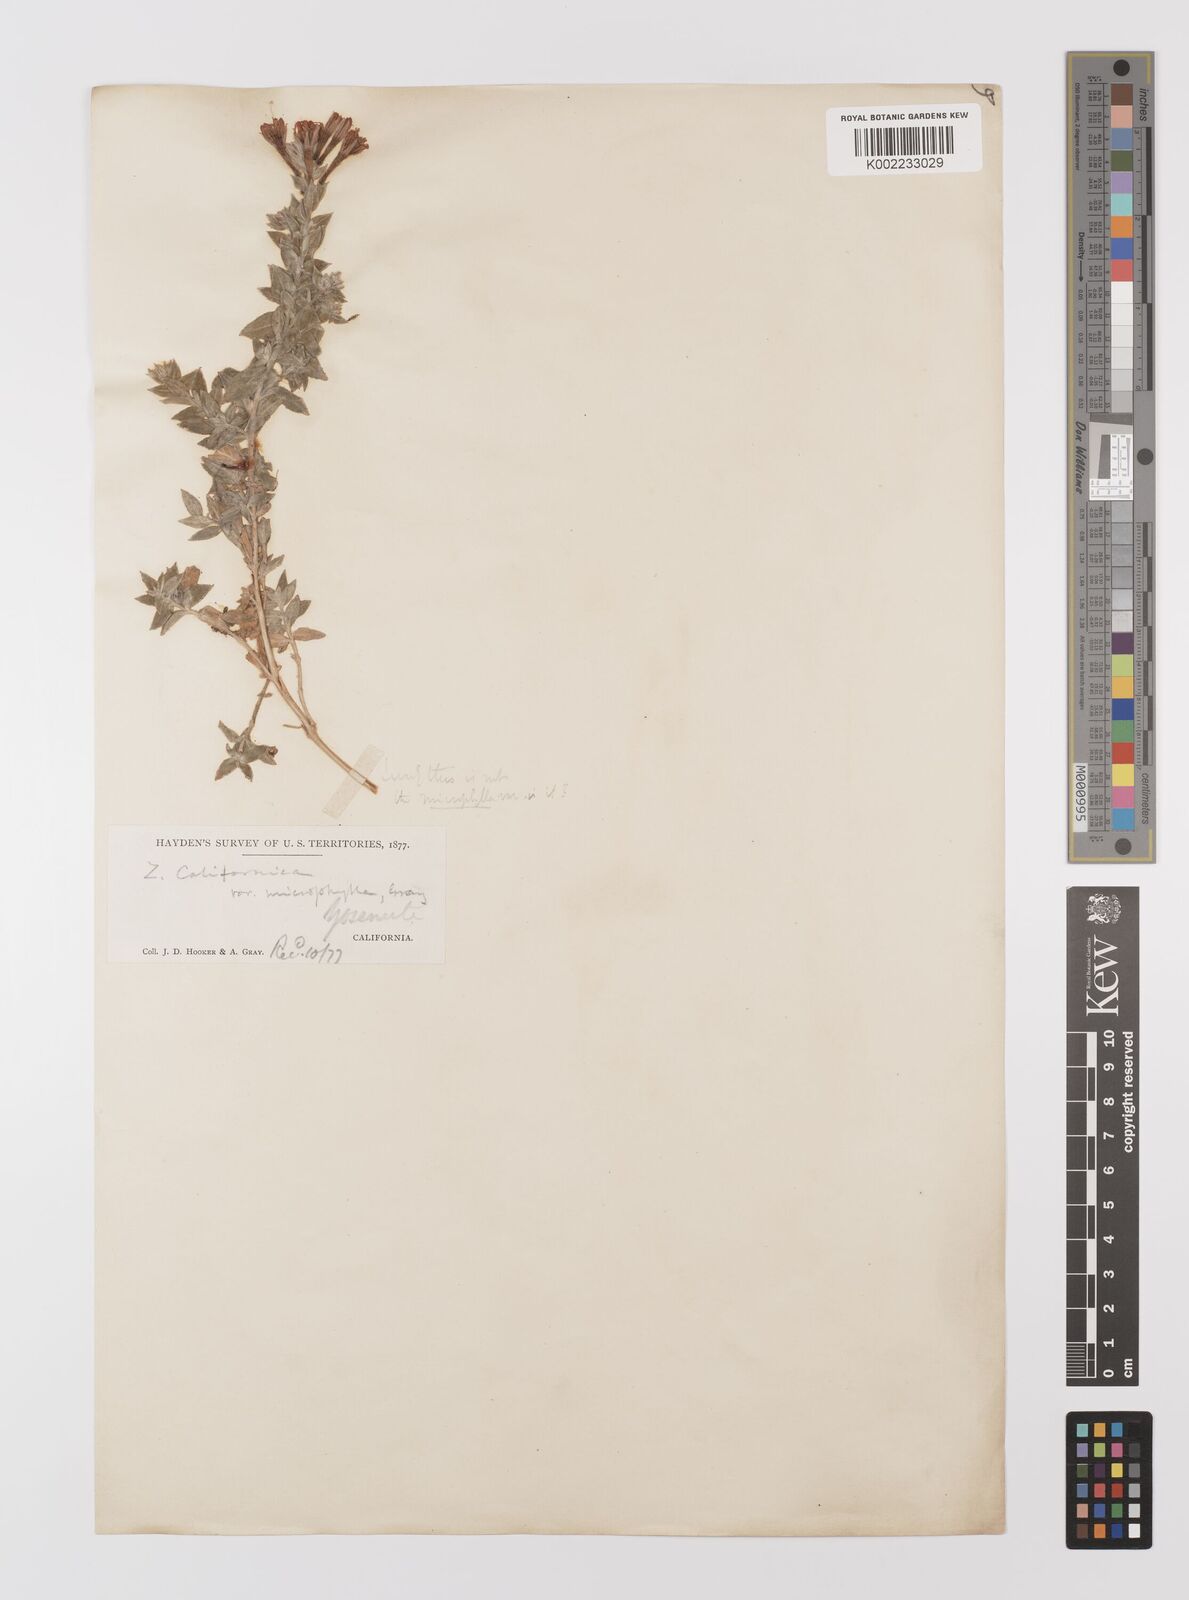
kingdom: Plantae
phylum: Tracheophyta
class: Magnoliopsida
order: Myrtales
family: Onagraceae
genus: Epilobium
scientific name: Epilobium septentrionale
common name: Humboldt county-fuchsia
